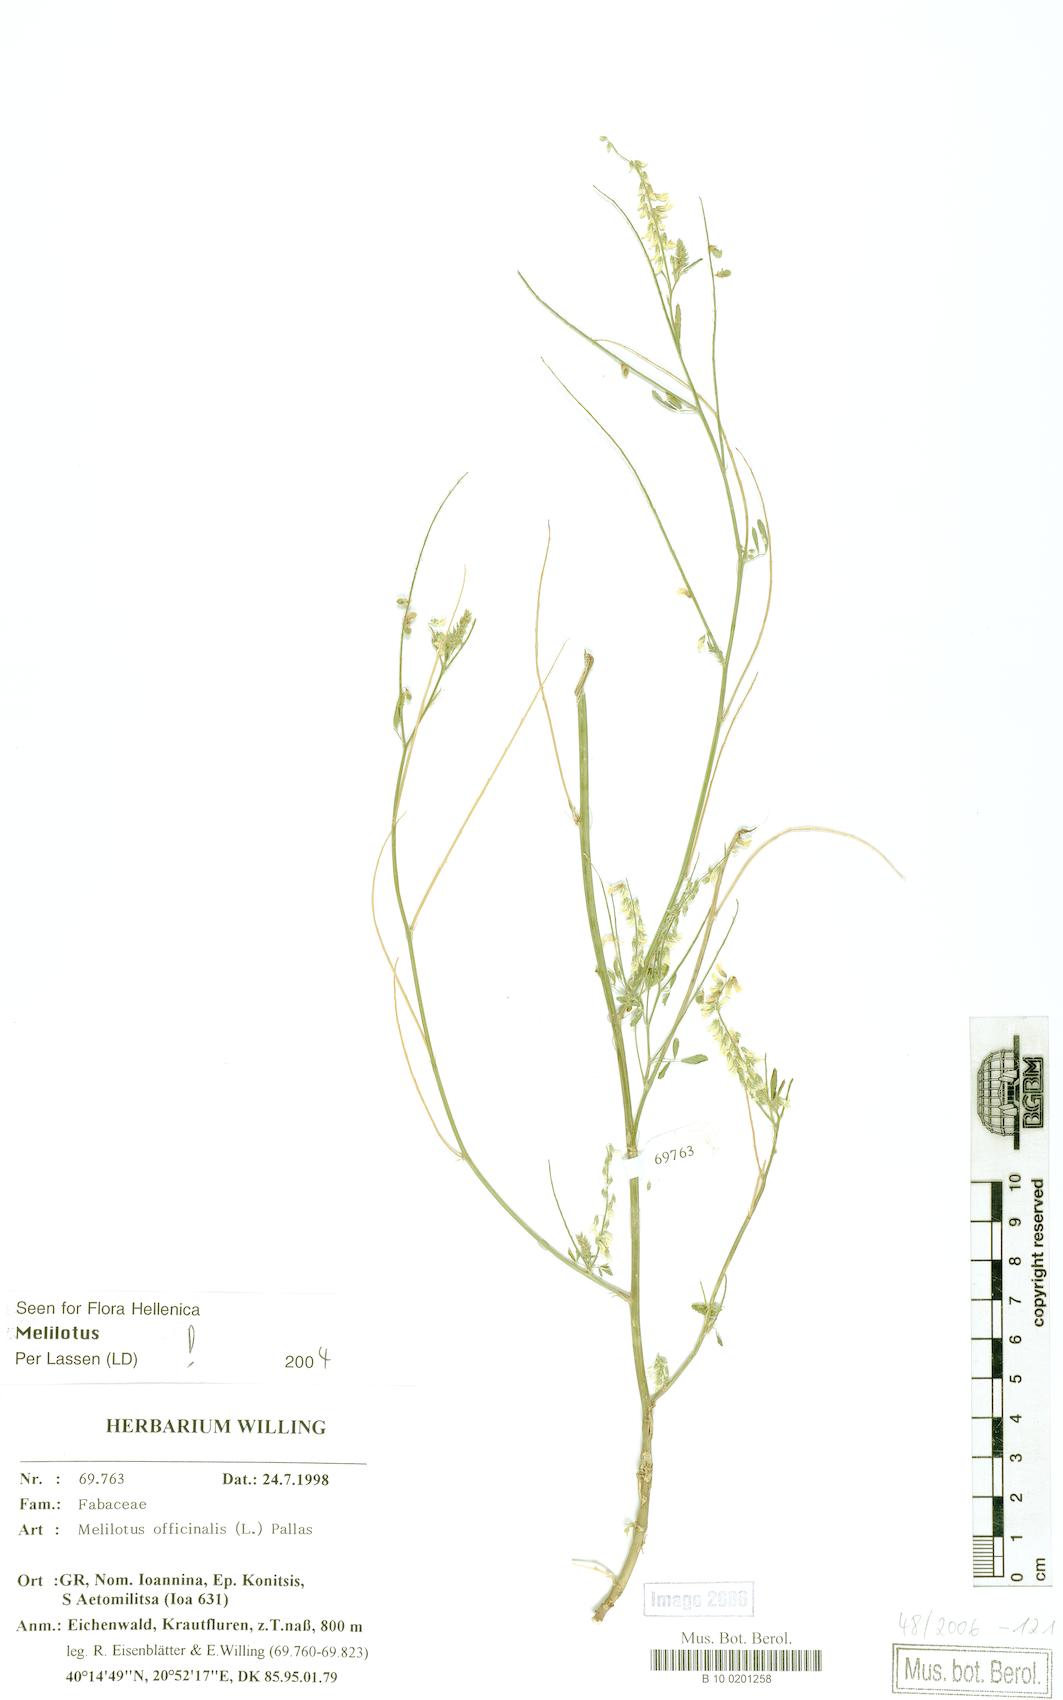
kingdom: Plantae
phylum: Tracheophyta
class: Magnoliopsida
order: Fabales
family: Fabaceae
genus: Melilotus
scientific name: Melilotus officinalis
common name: Sweetclover
